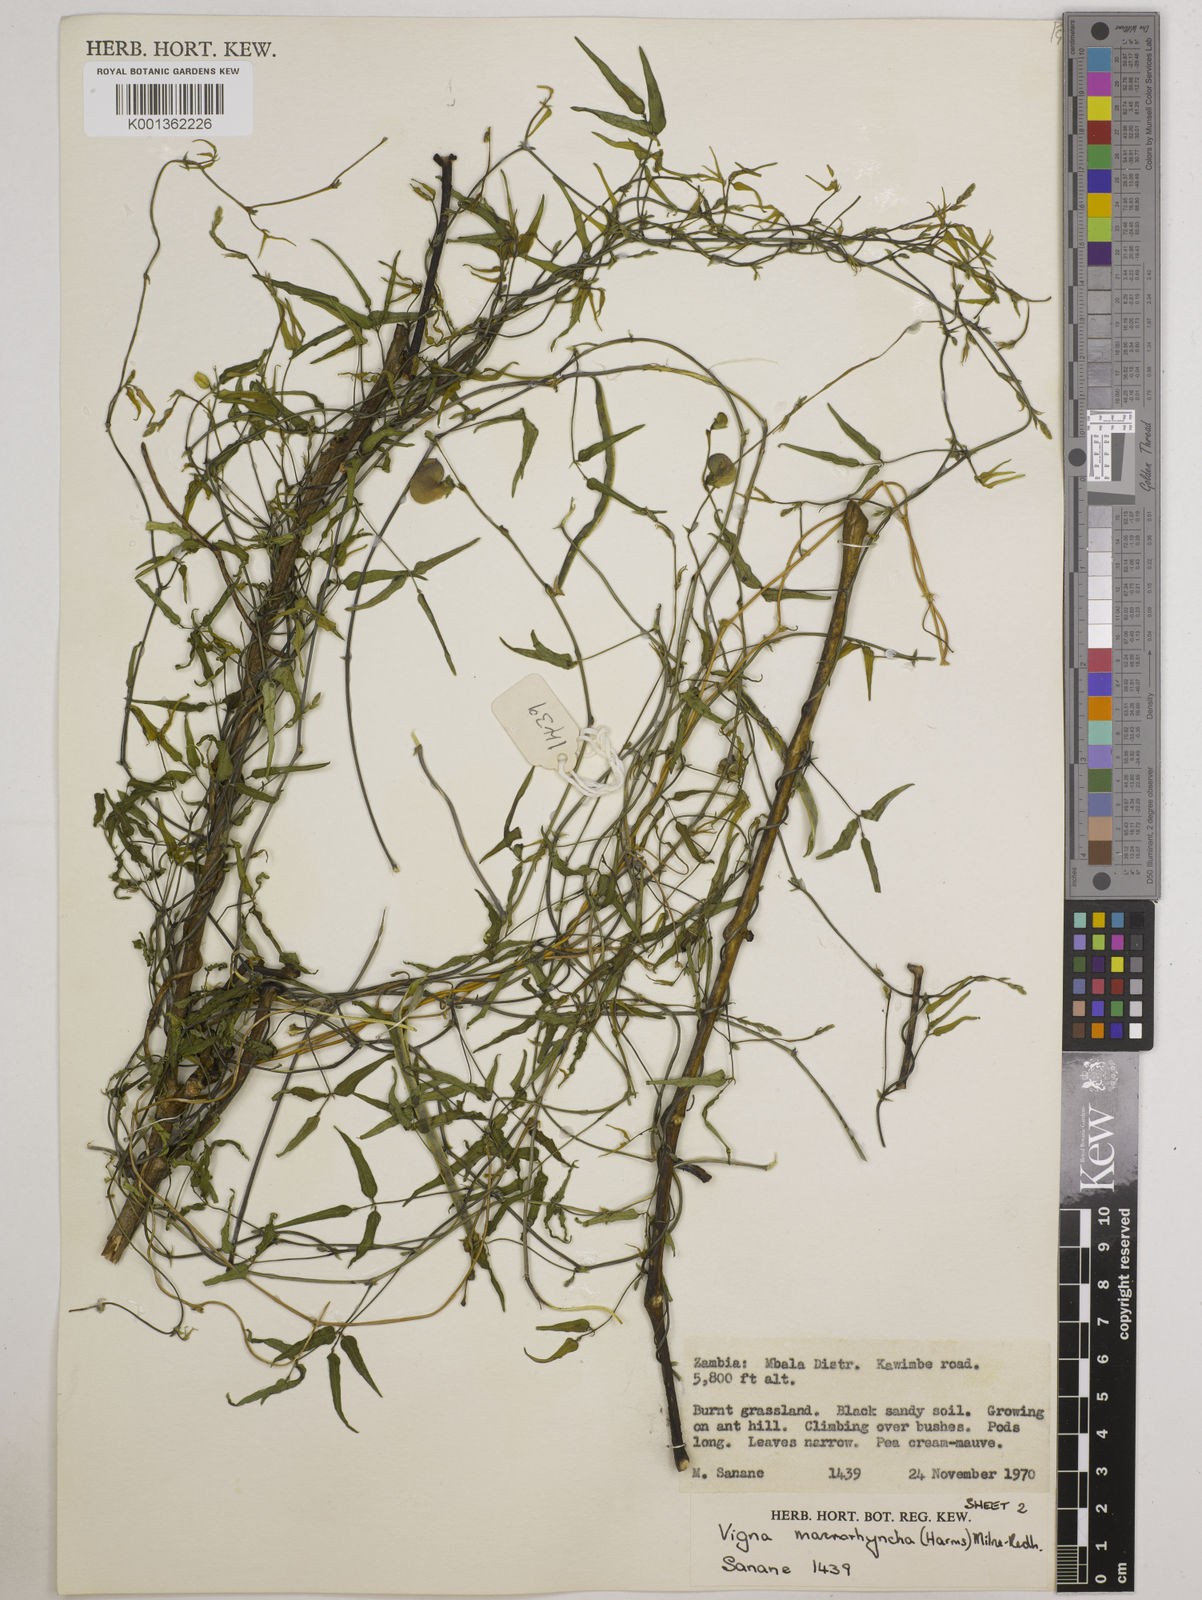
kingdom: Plantae
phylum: Tracheophyta
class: Magnoliopsida
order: Fabales
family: Fabaceae
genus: Wajira
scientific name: Wajira grahamiana
